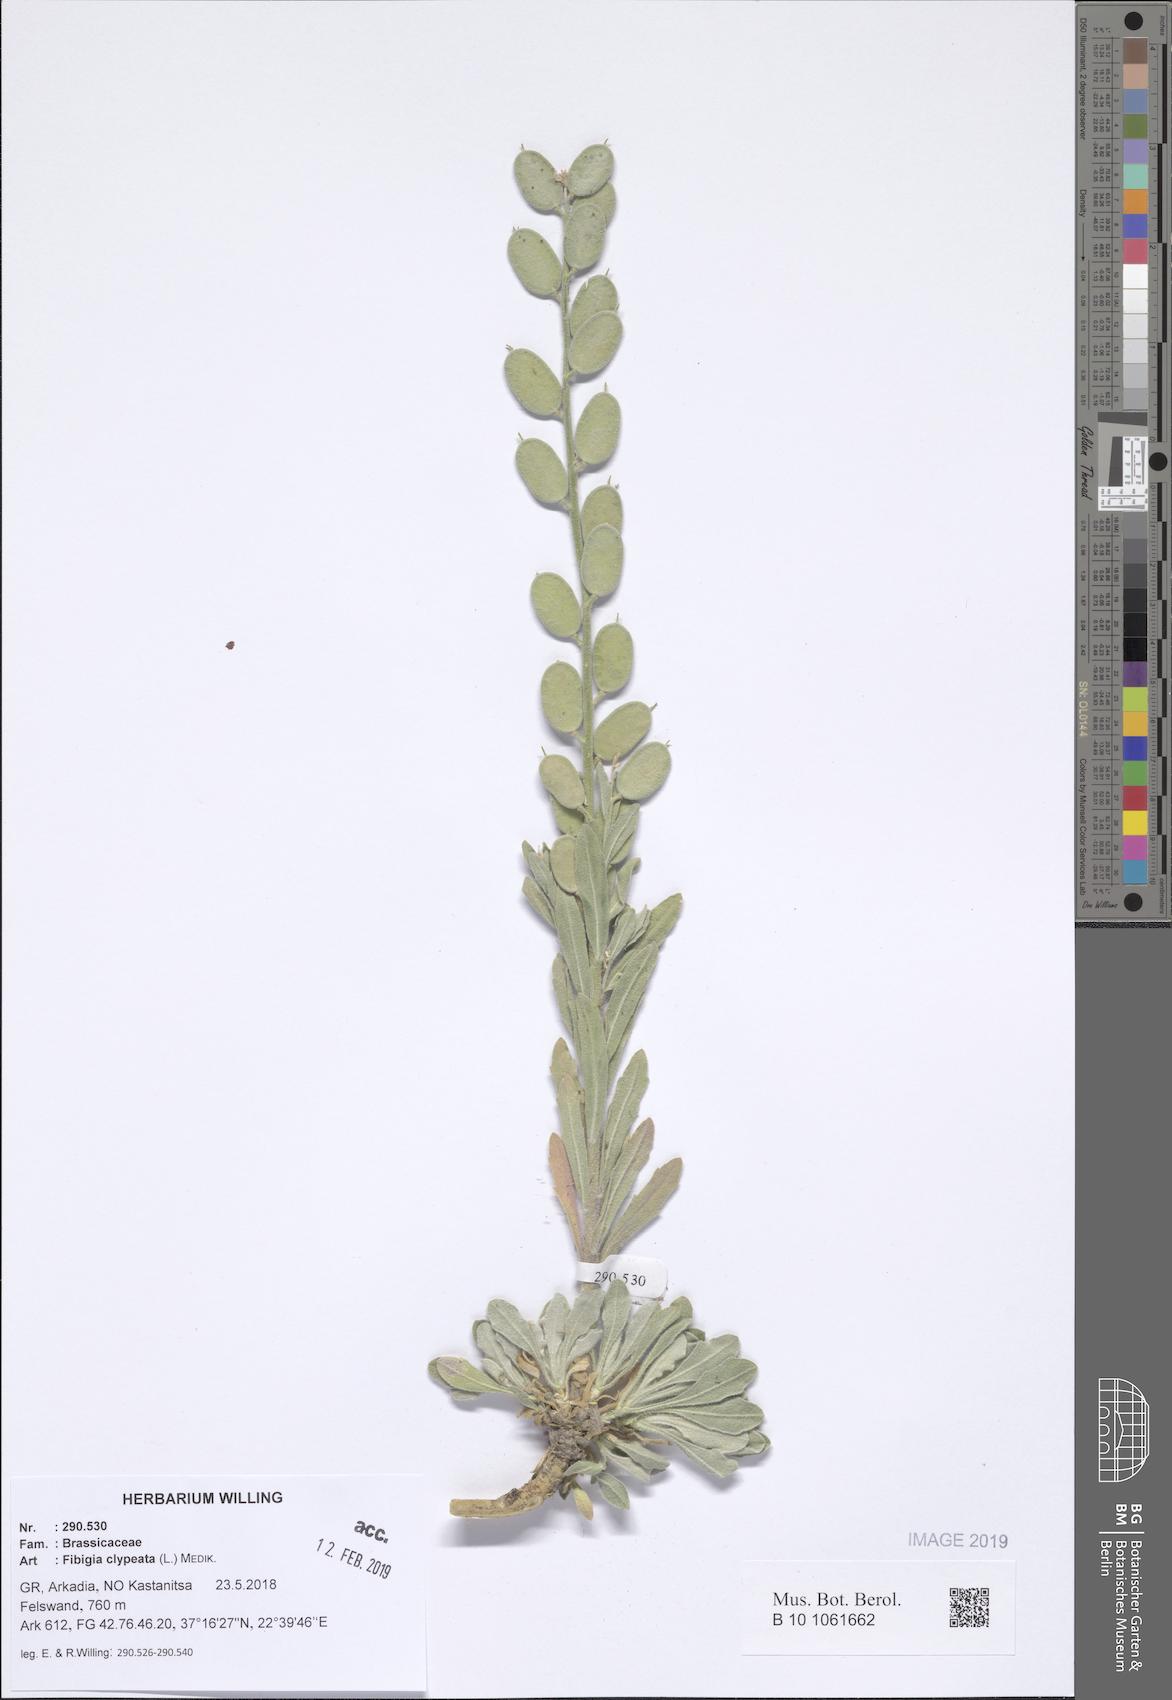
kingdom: Plantae
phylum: Tracheophyta
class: Magnoliopsida
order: Brassicales
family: Brassicaceae
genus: Fibigia
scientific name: Fibigia clypeata
